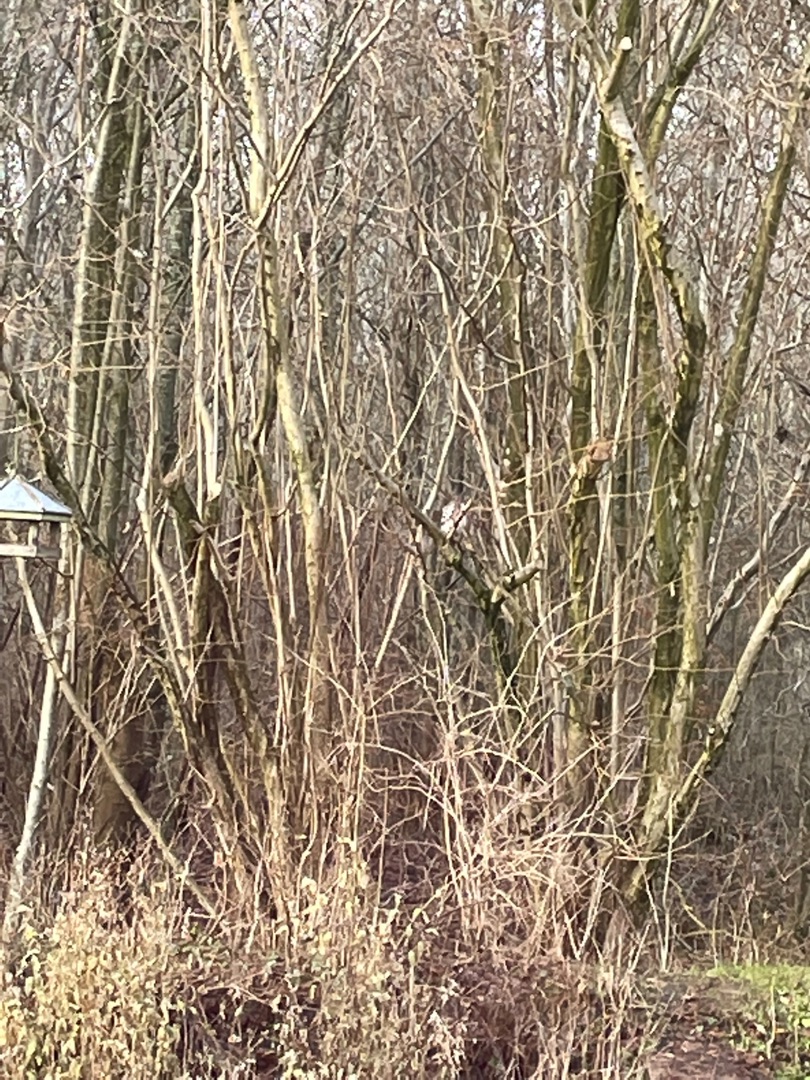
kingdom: Animalia
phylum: Chordata
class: Aves
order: Strigiformes
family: Strigidae
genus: Strix
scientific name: Strix aluco
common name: Natugle
